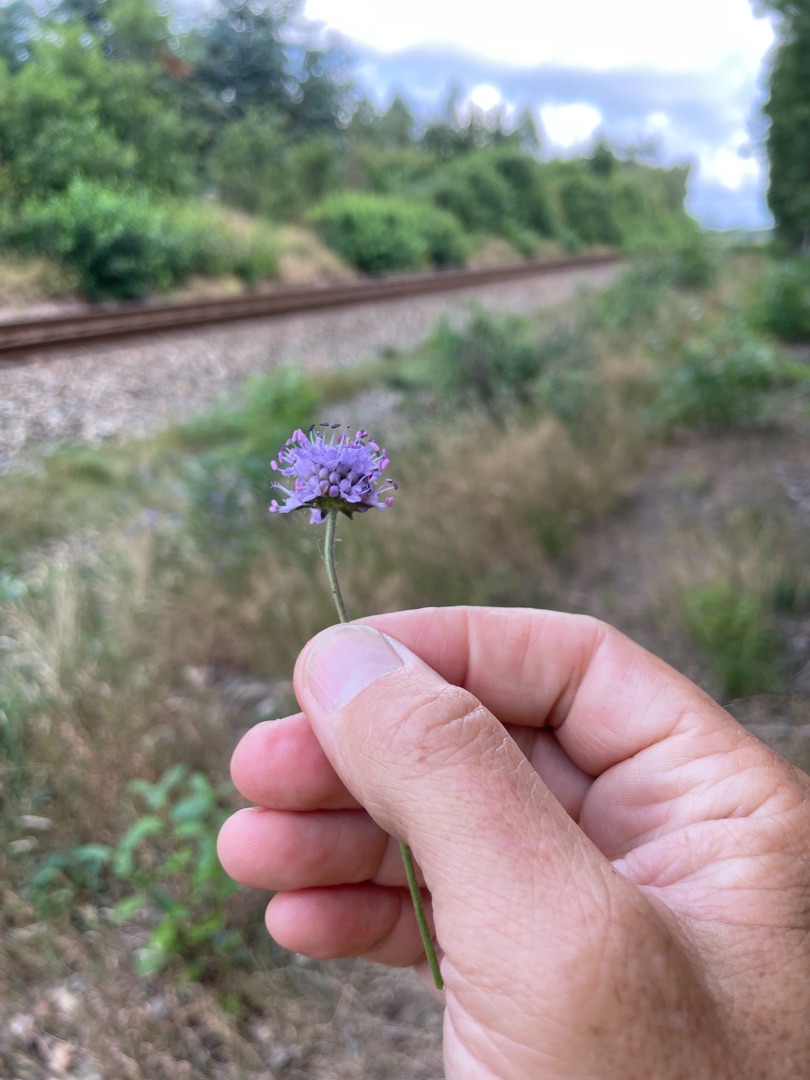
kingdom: Plantae
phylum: Tracheophyta
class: Magnoliopsida
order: Dipsacales
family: Caprifoliaceae
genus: Succisa
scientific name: Succisa pratensis
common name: Djævelsbid
